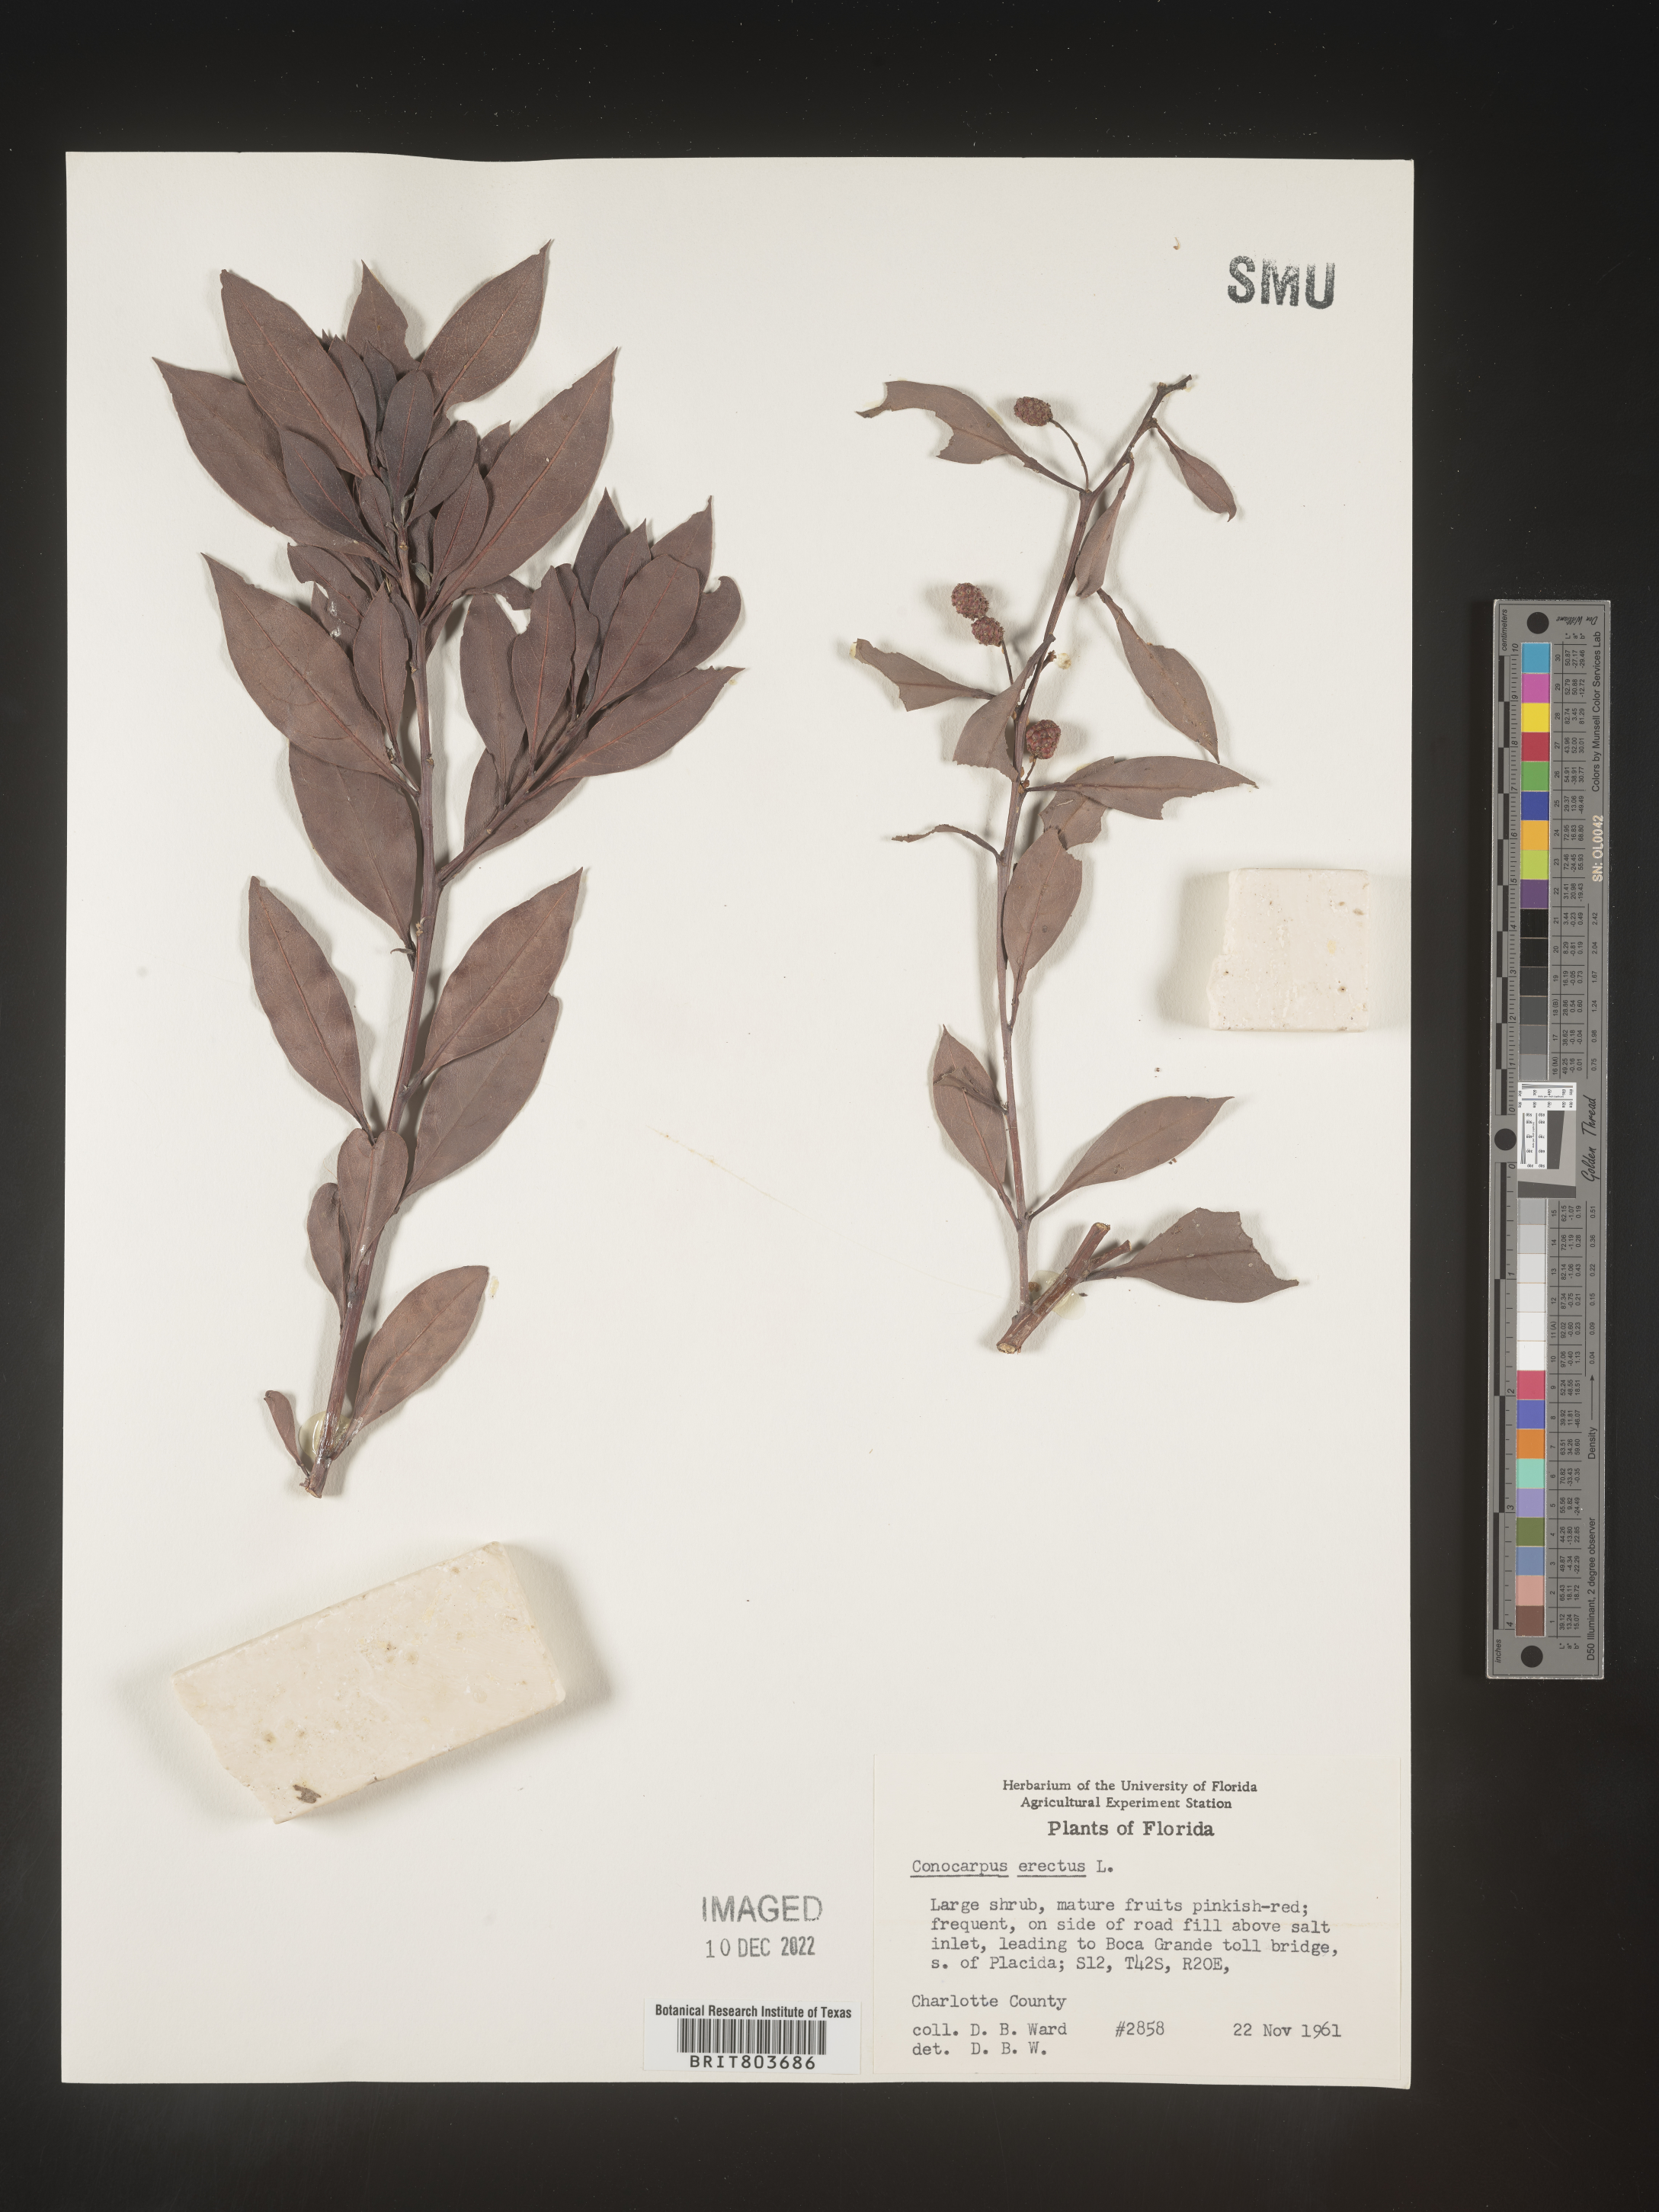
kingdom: Plantae
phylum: Tracheophyta
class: Magnoliopsida
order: Myrtales
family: Combretaceae
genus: Conocarpus
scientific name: Conocarpus erectus
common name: Button mangrove
